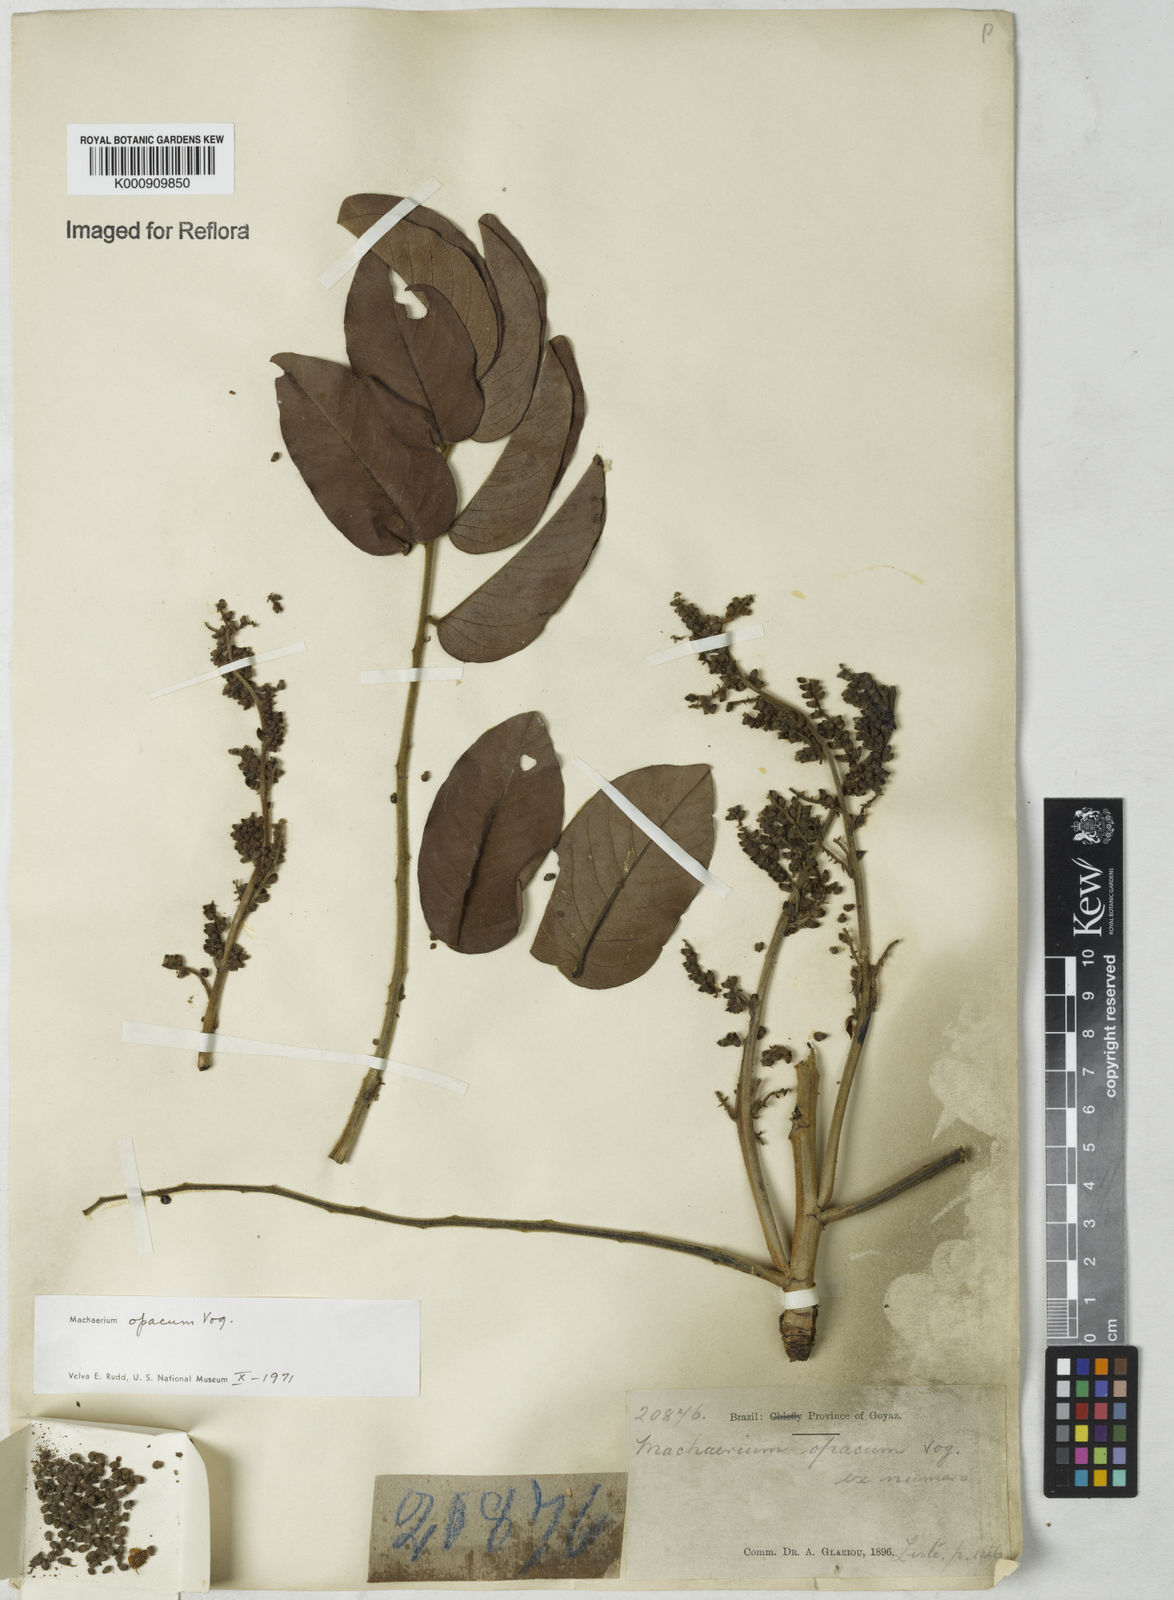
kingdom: Plantae
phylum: Tracheophyta
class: Magnoliopsida
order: Fabales
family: Fabaceae
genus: Machaerium
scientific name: Machaerium opacum
